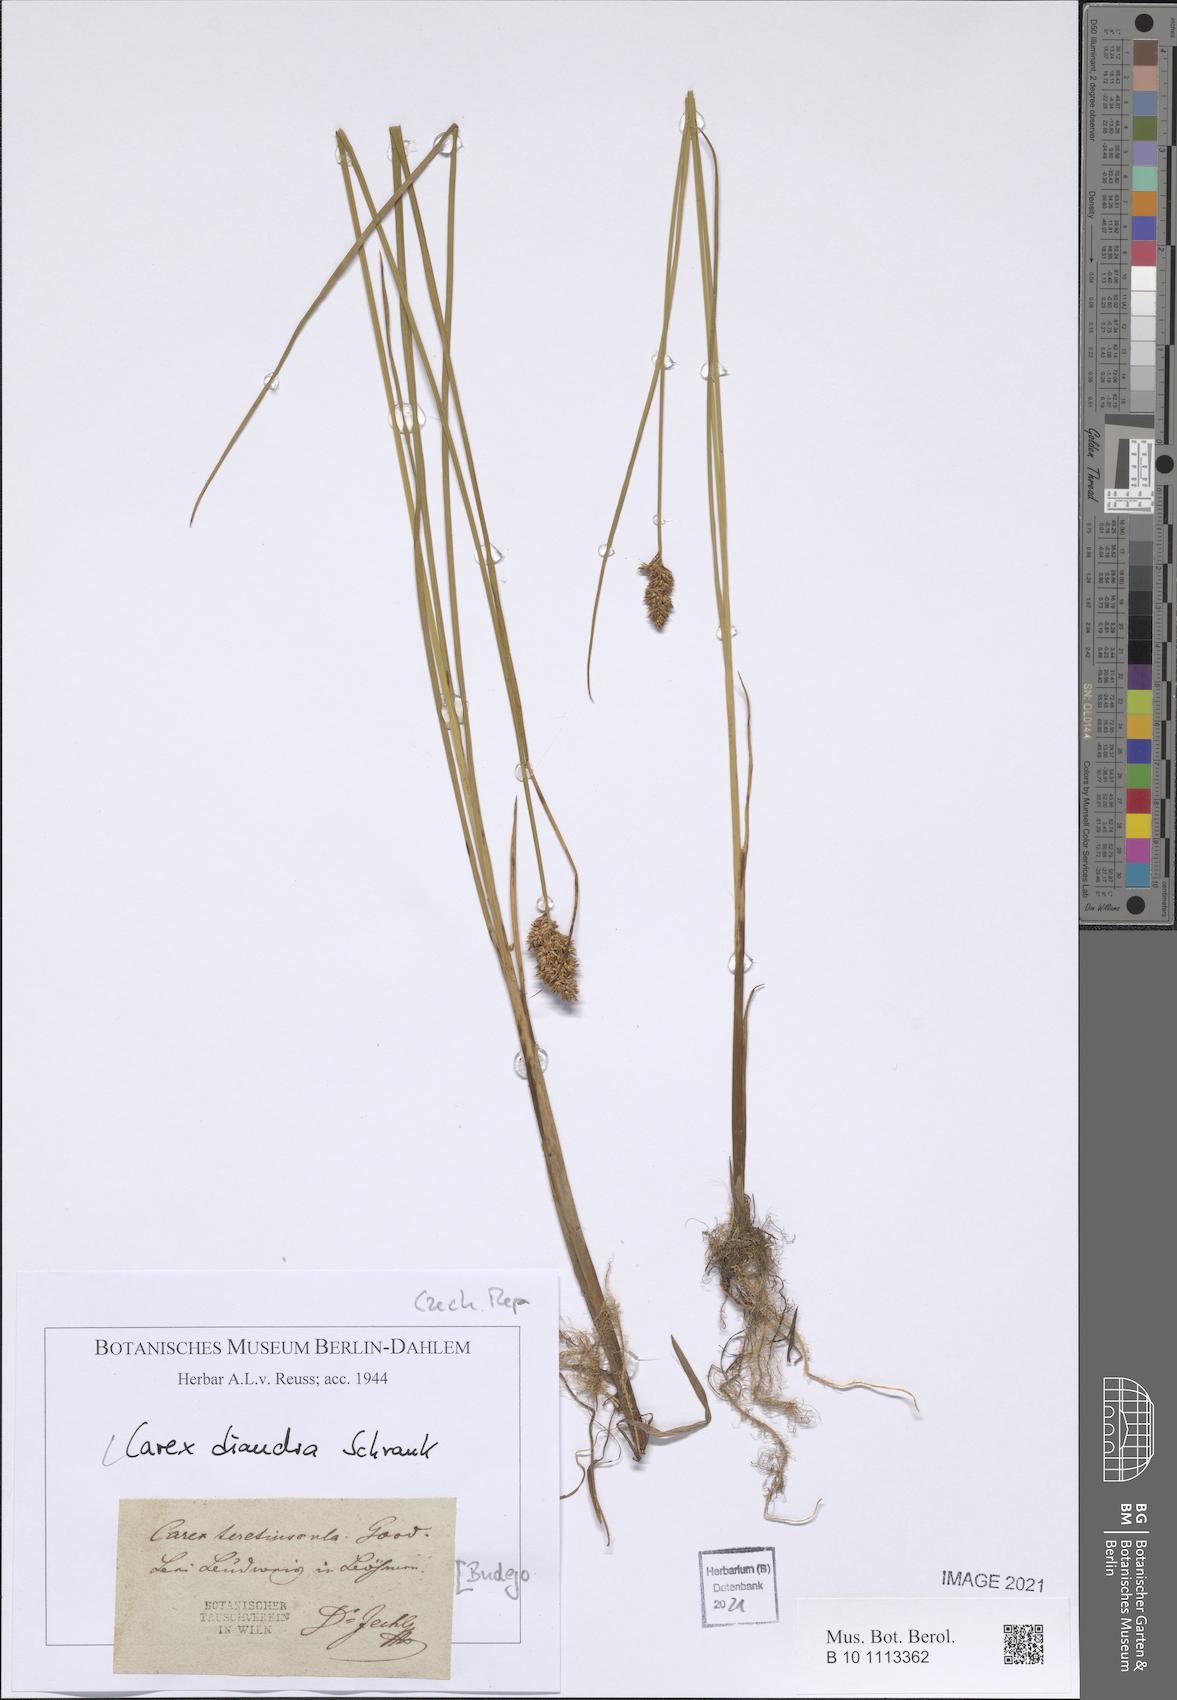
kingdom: Plantae
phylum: Tracheophyta
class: Liliopsida
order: Poales
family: Cyperaceae
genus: Carex
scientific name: Carex diandra
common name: Lesser tussock-sedge
